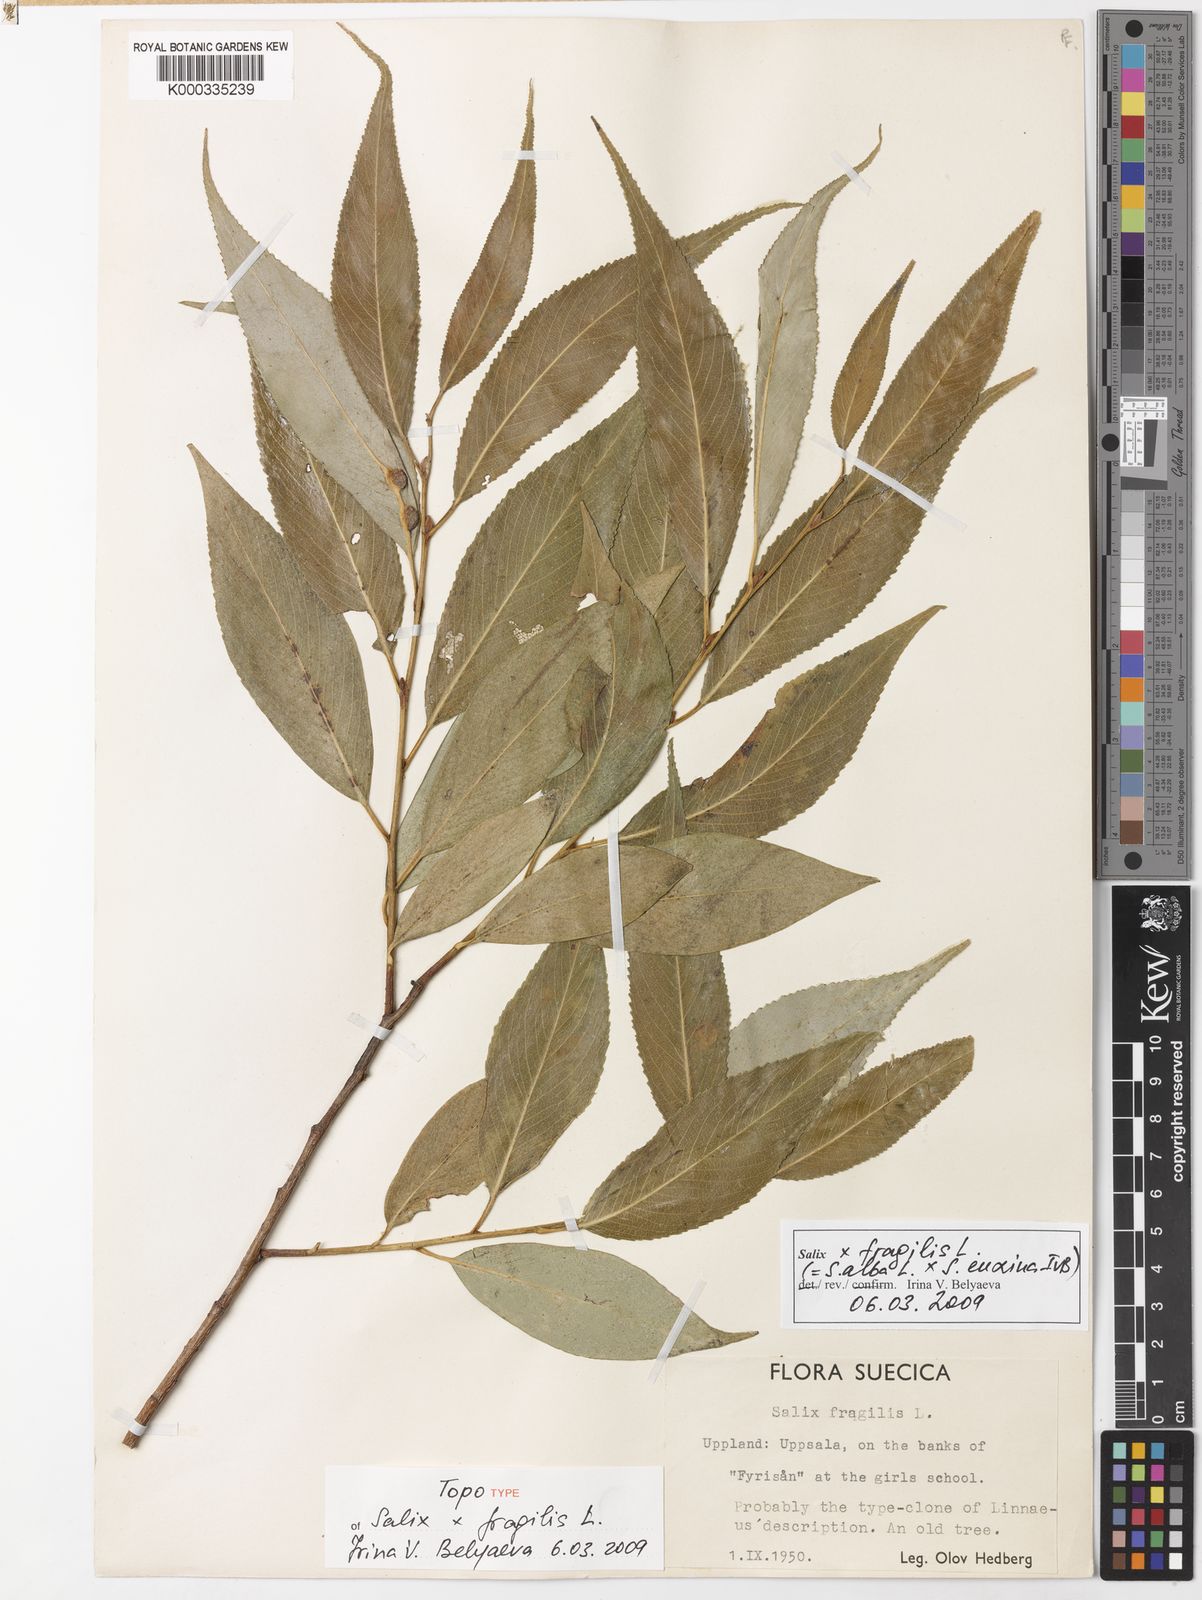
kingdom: Plantae
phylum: Tracheophyta
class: Magnoliopsida
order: Malpighiales
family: Salicaceae
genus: Salix
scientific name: Salix
